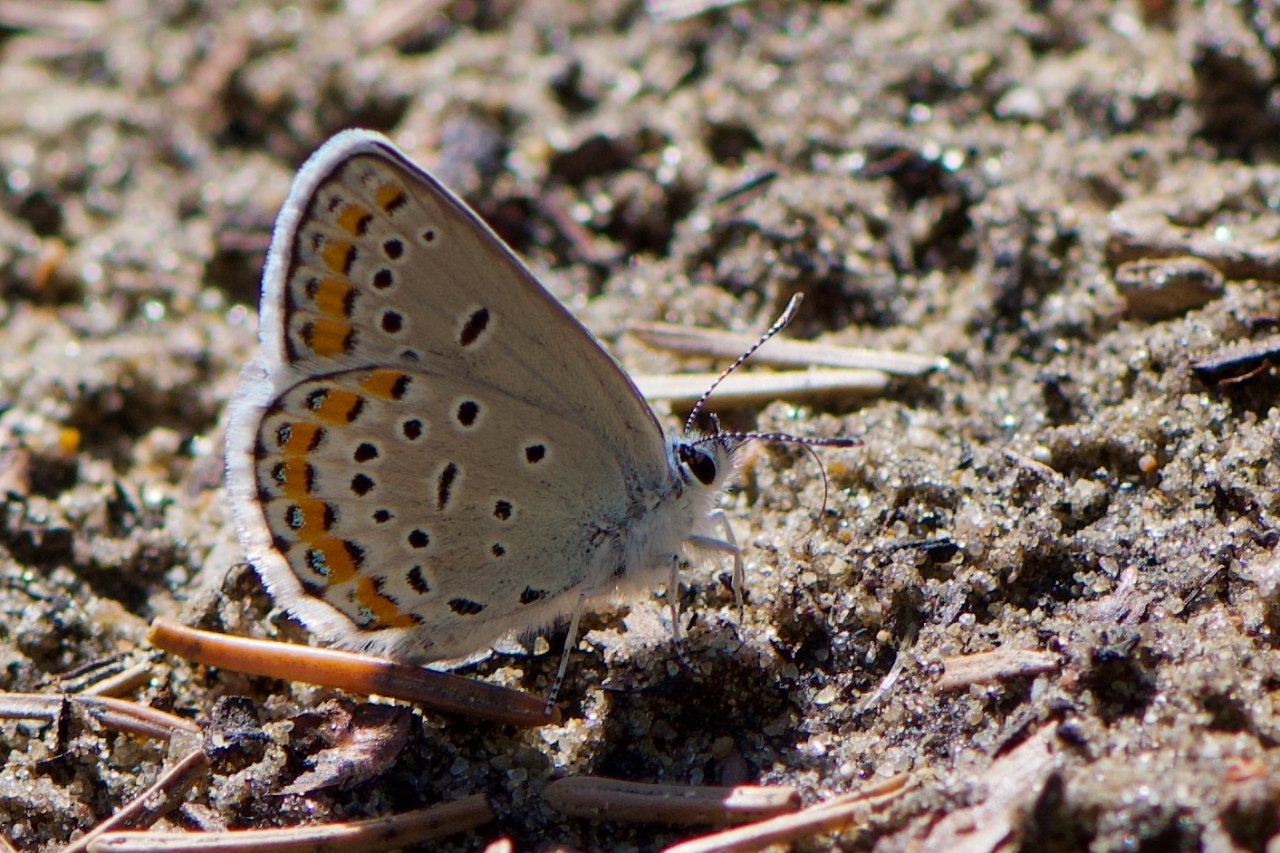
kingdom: Animalia
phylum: Arthropoda
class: Insecta
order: Lepidoptera
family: Lycaenidae
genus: Lycaeides
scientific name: Lycaeides melissa
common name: Melissa Blue
